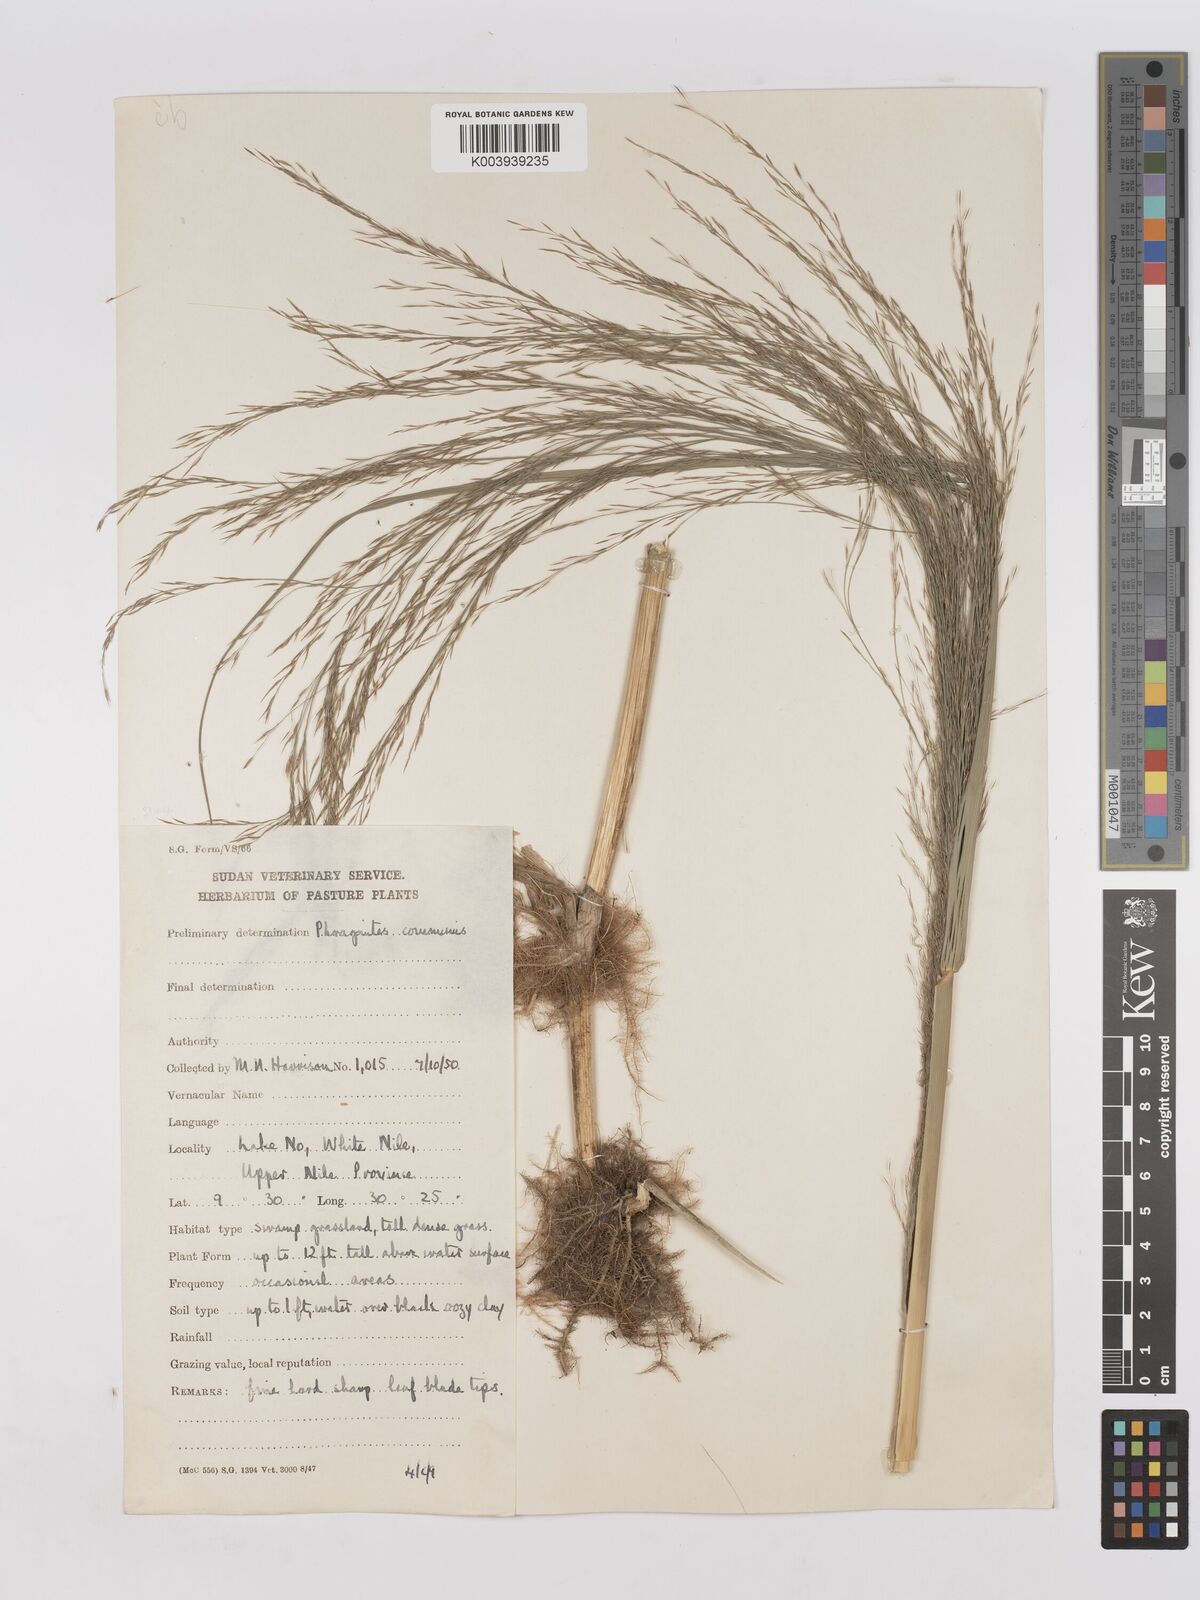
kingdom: Plantae
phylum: Tracheophyta
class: Liliopsida
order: Poales
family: Poaceae
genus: Phragmites
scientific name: Phragmites karka
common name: Tropical reed
